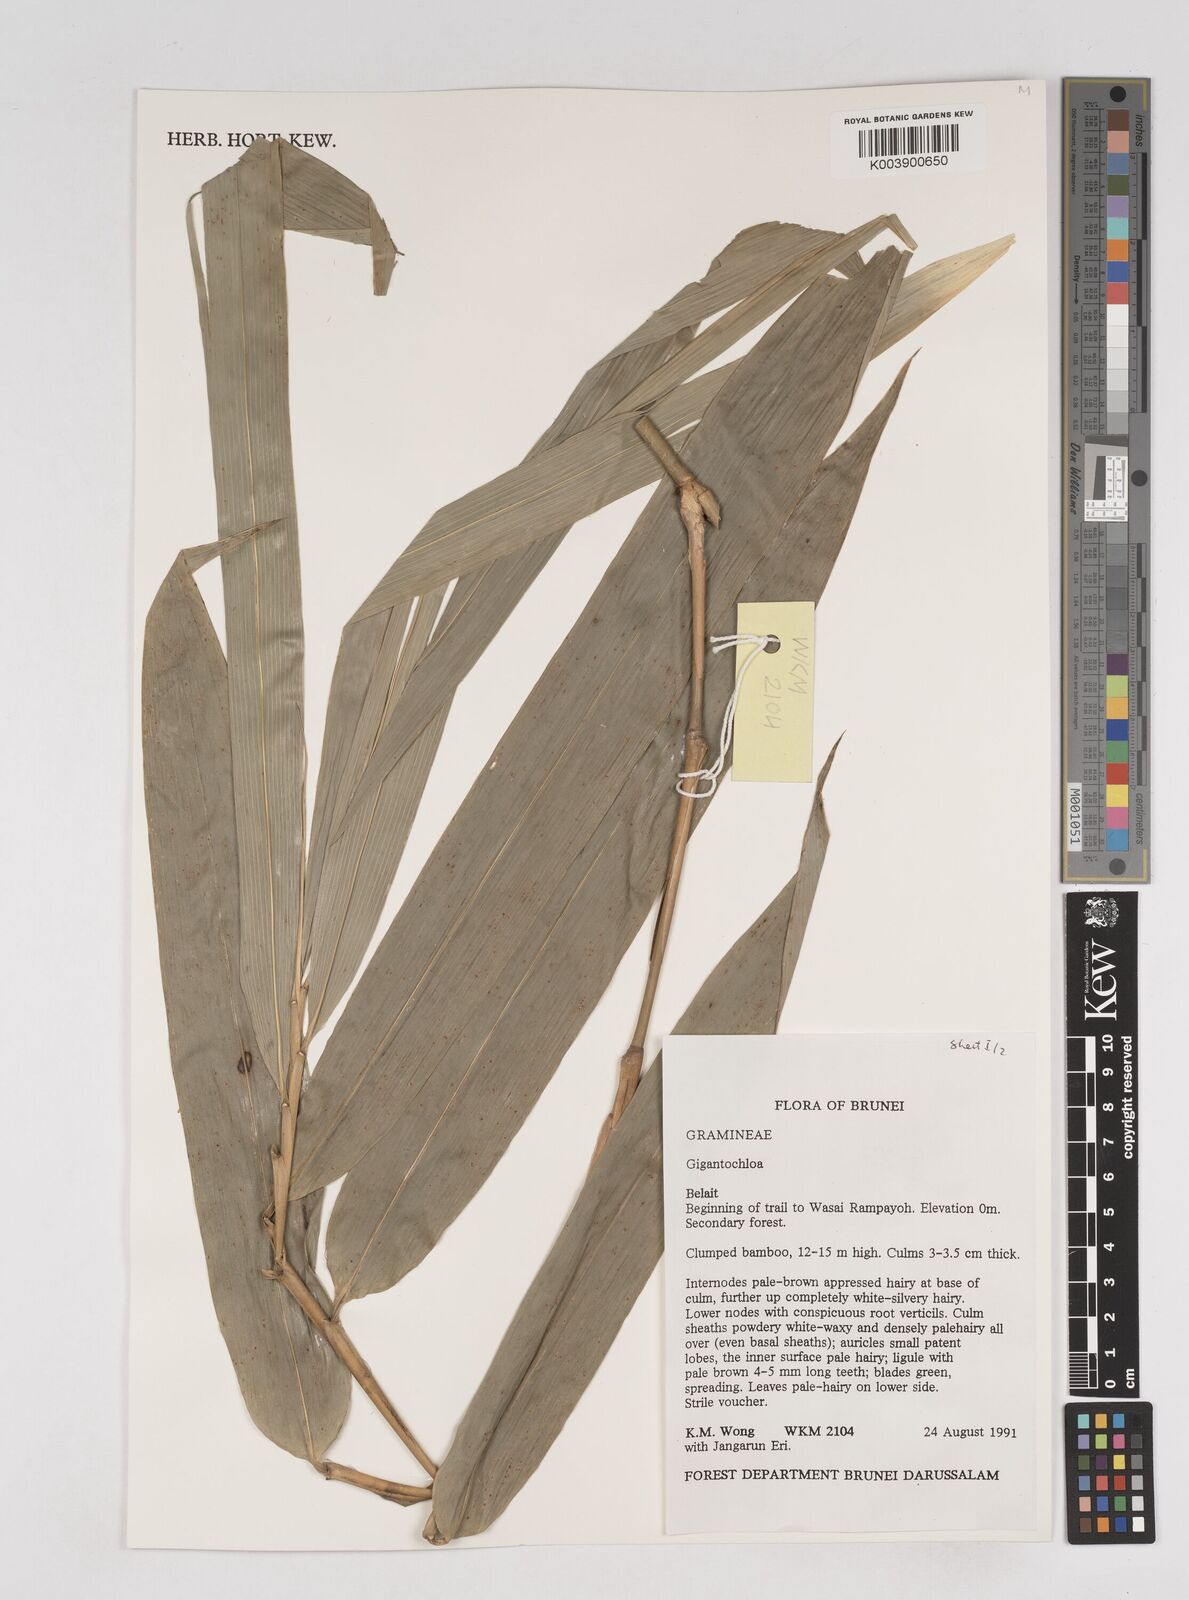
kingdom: Plantae
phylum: Tracheophyta
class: Liliopsida
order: Poales
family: Poaceae
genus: Gigantochloa
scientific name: Gigantochloa
